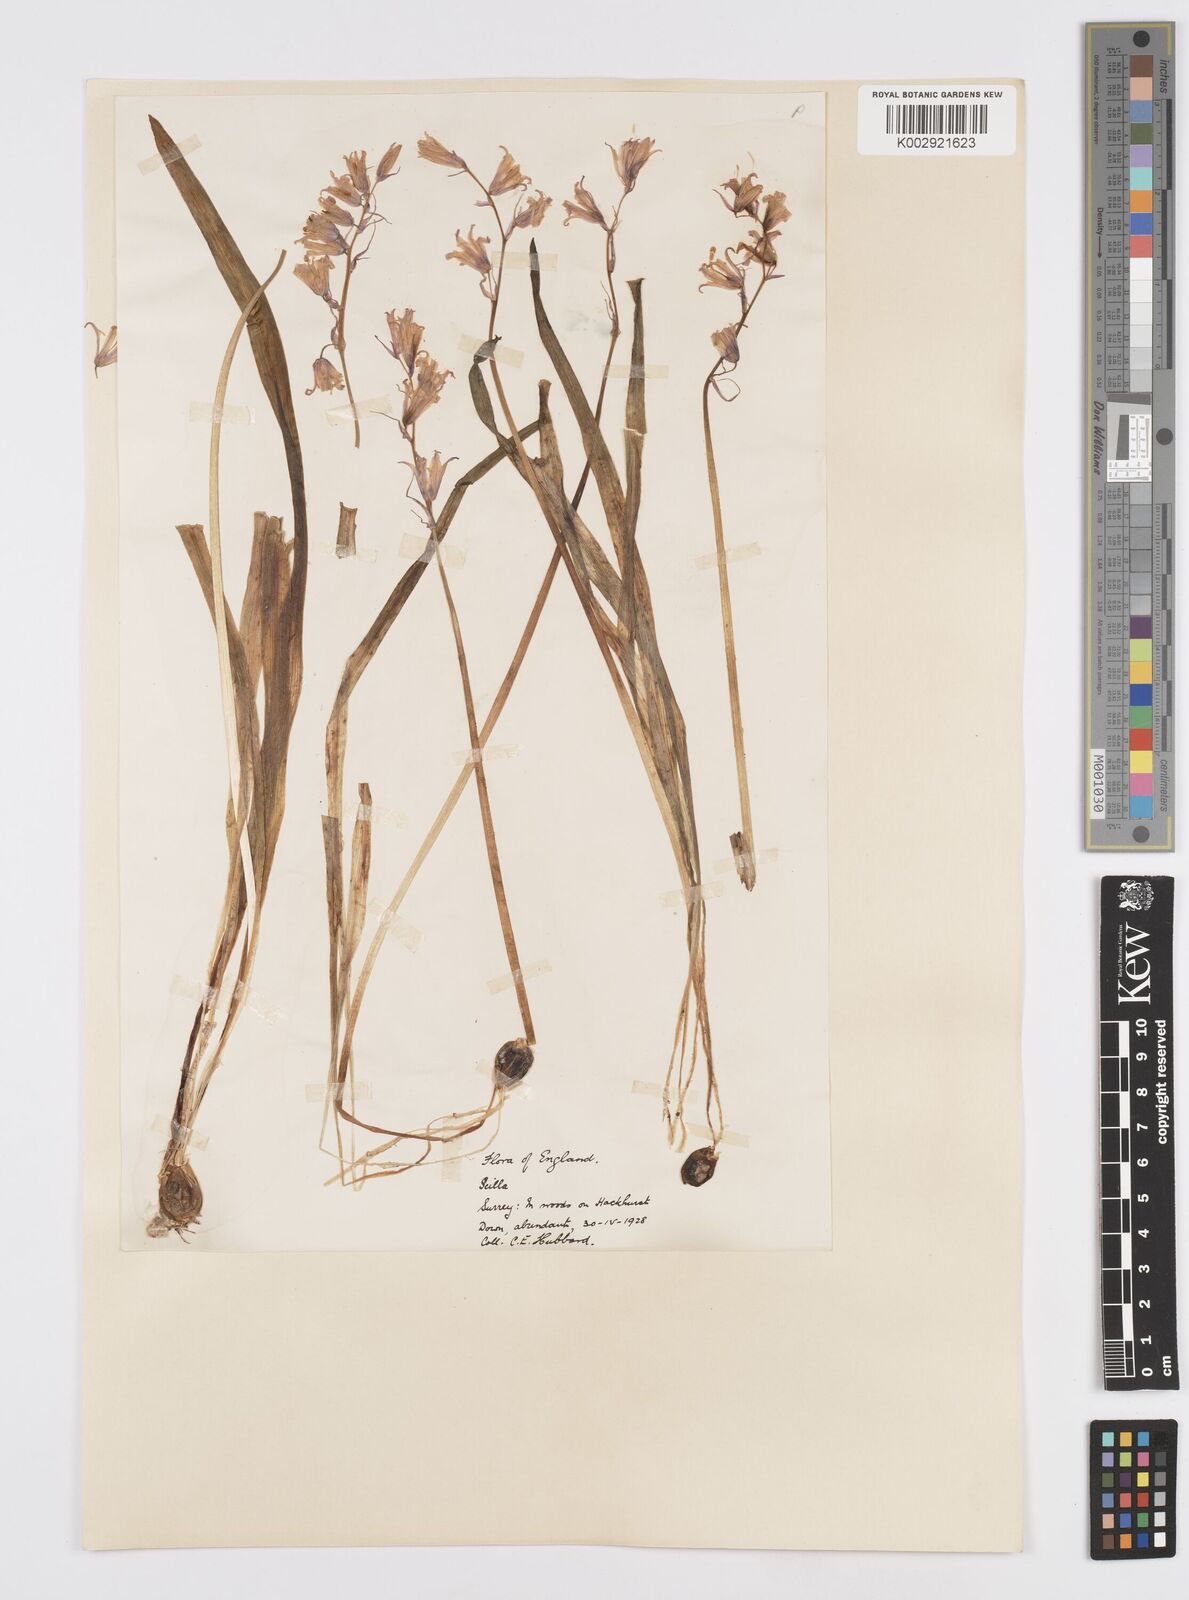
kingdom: Plantae
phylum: Tracheophyta
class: Liliopsida
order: Asparagales
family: Asparagaceae
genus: Hyacinthoides
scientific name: Hyacinthoides non-scripta
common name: Bluebell
